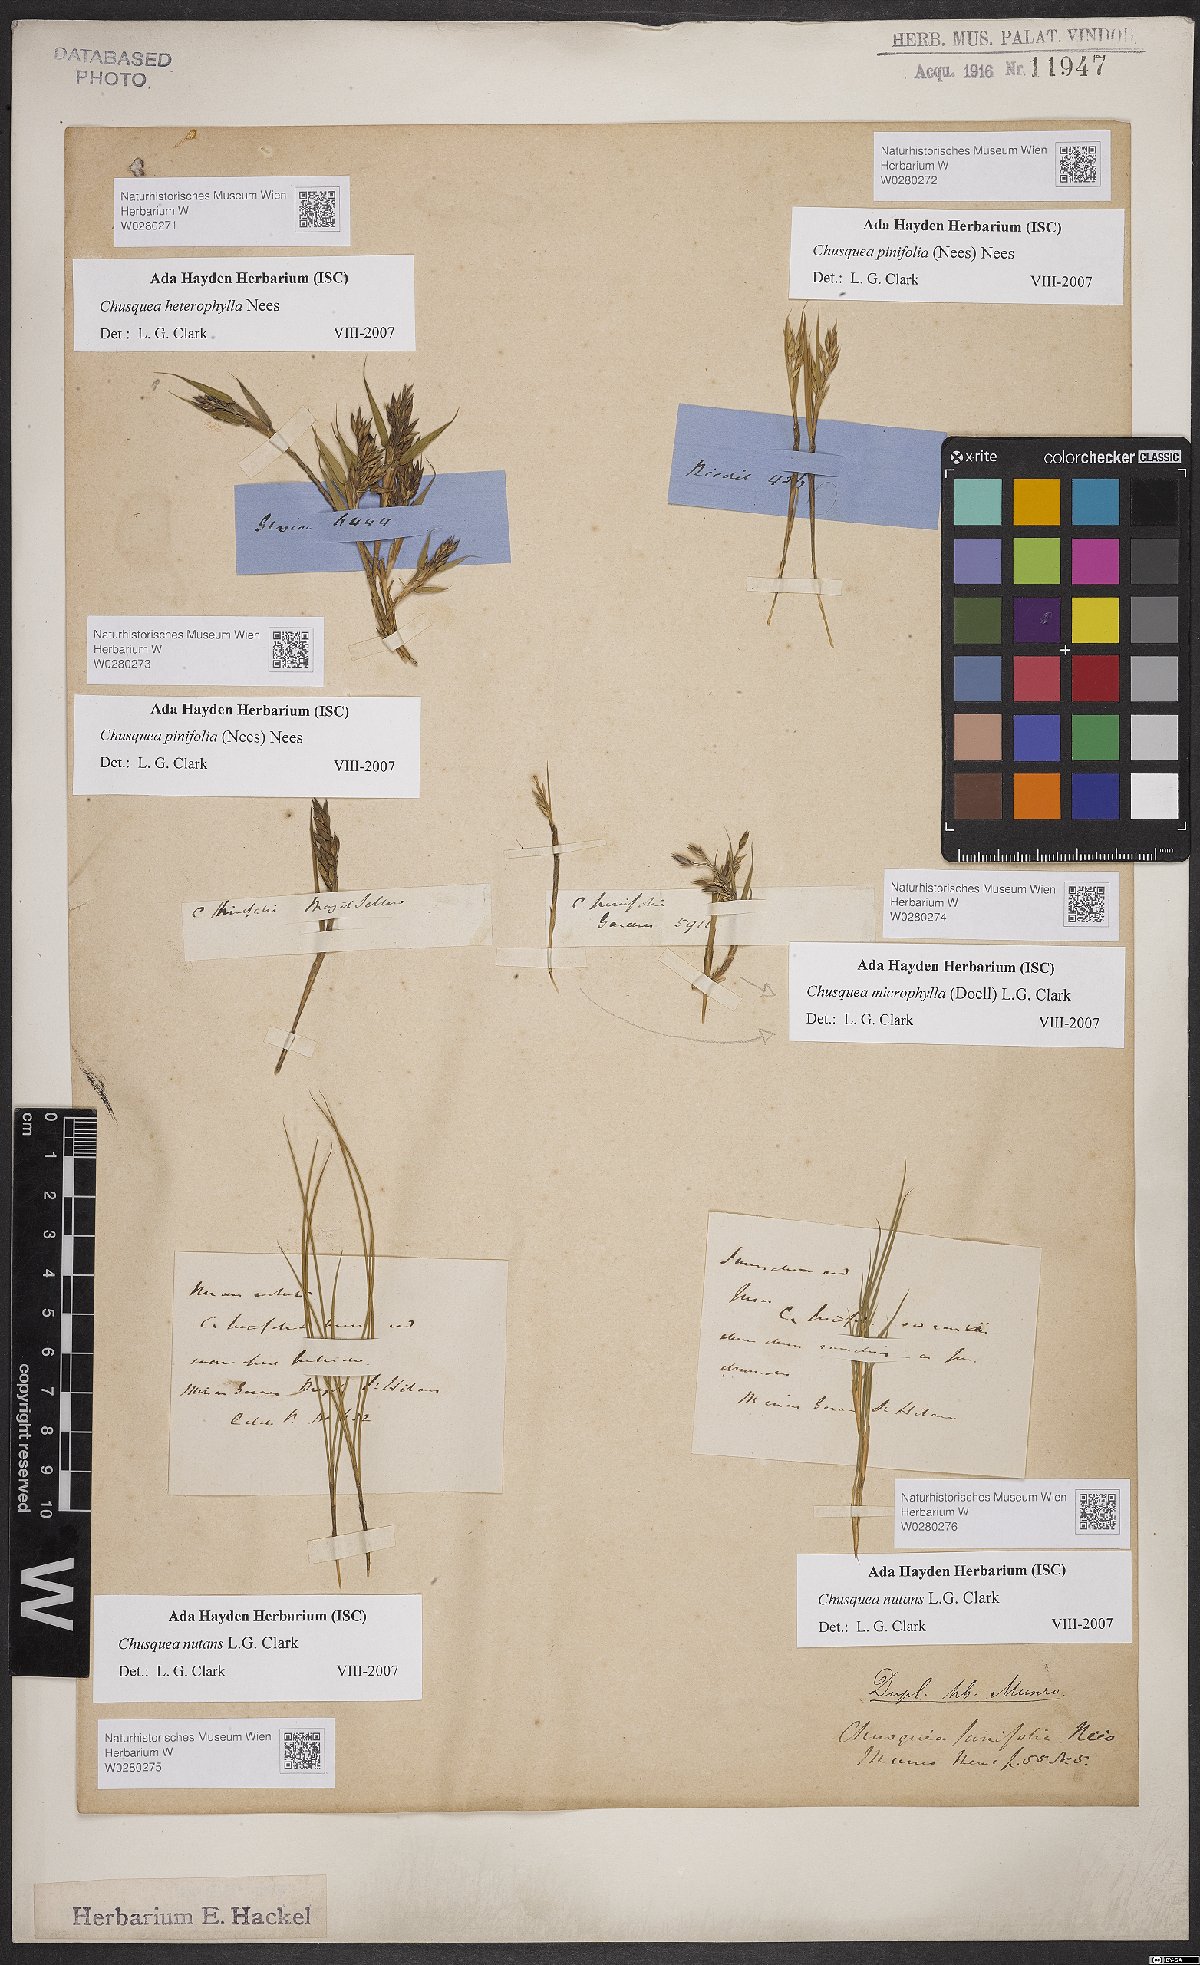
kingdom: Plantae
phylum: Tracheophyta
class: Liliopsida
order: Poales
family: Poaceae
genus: Chusquea
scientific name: Chusquea nutans
